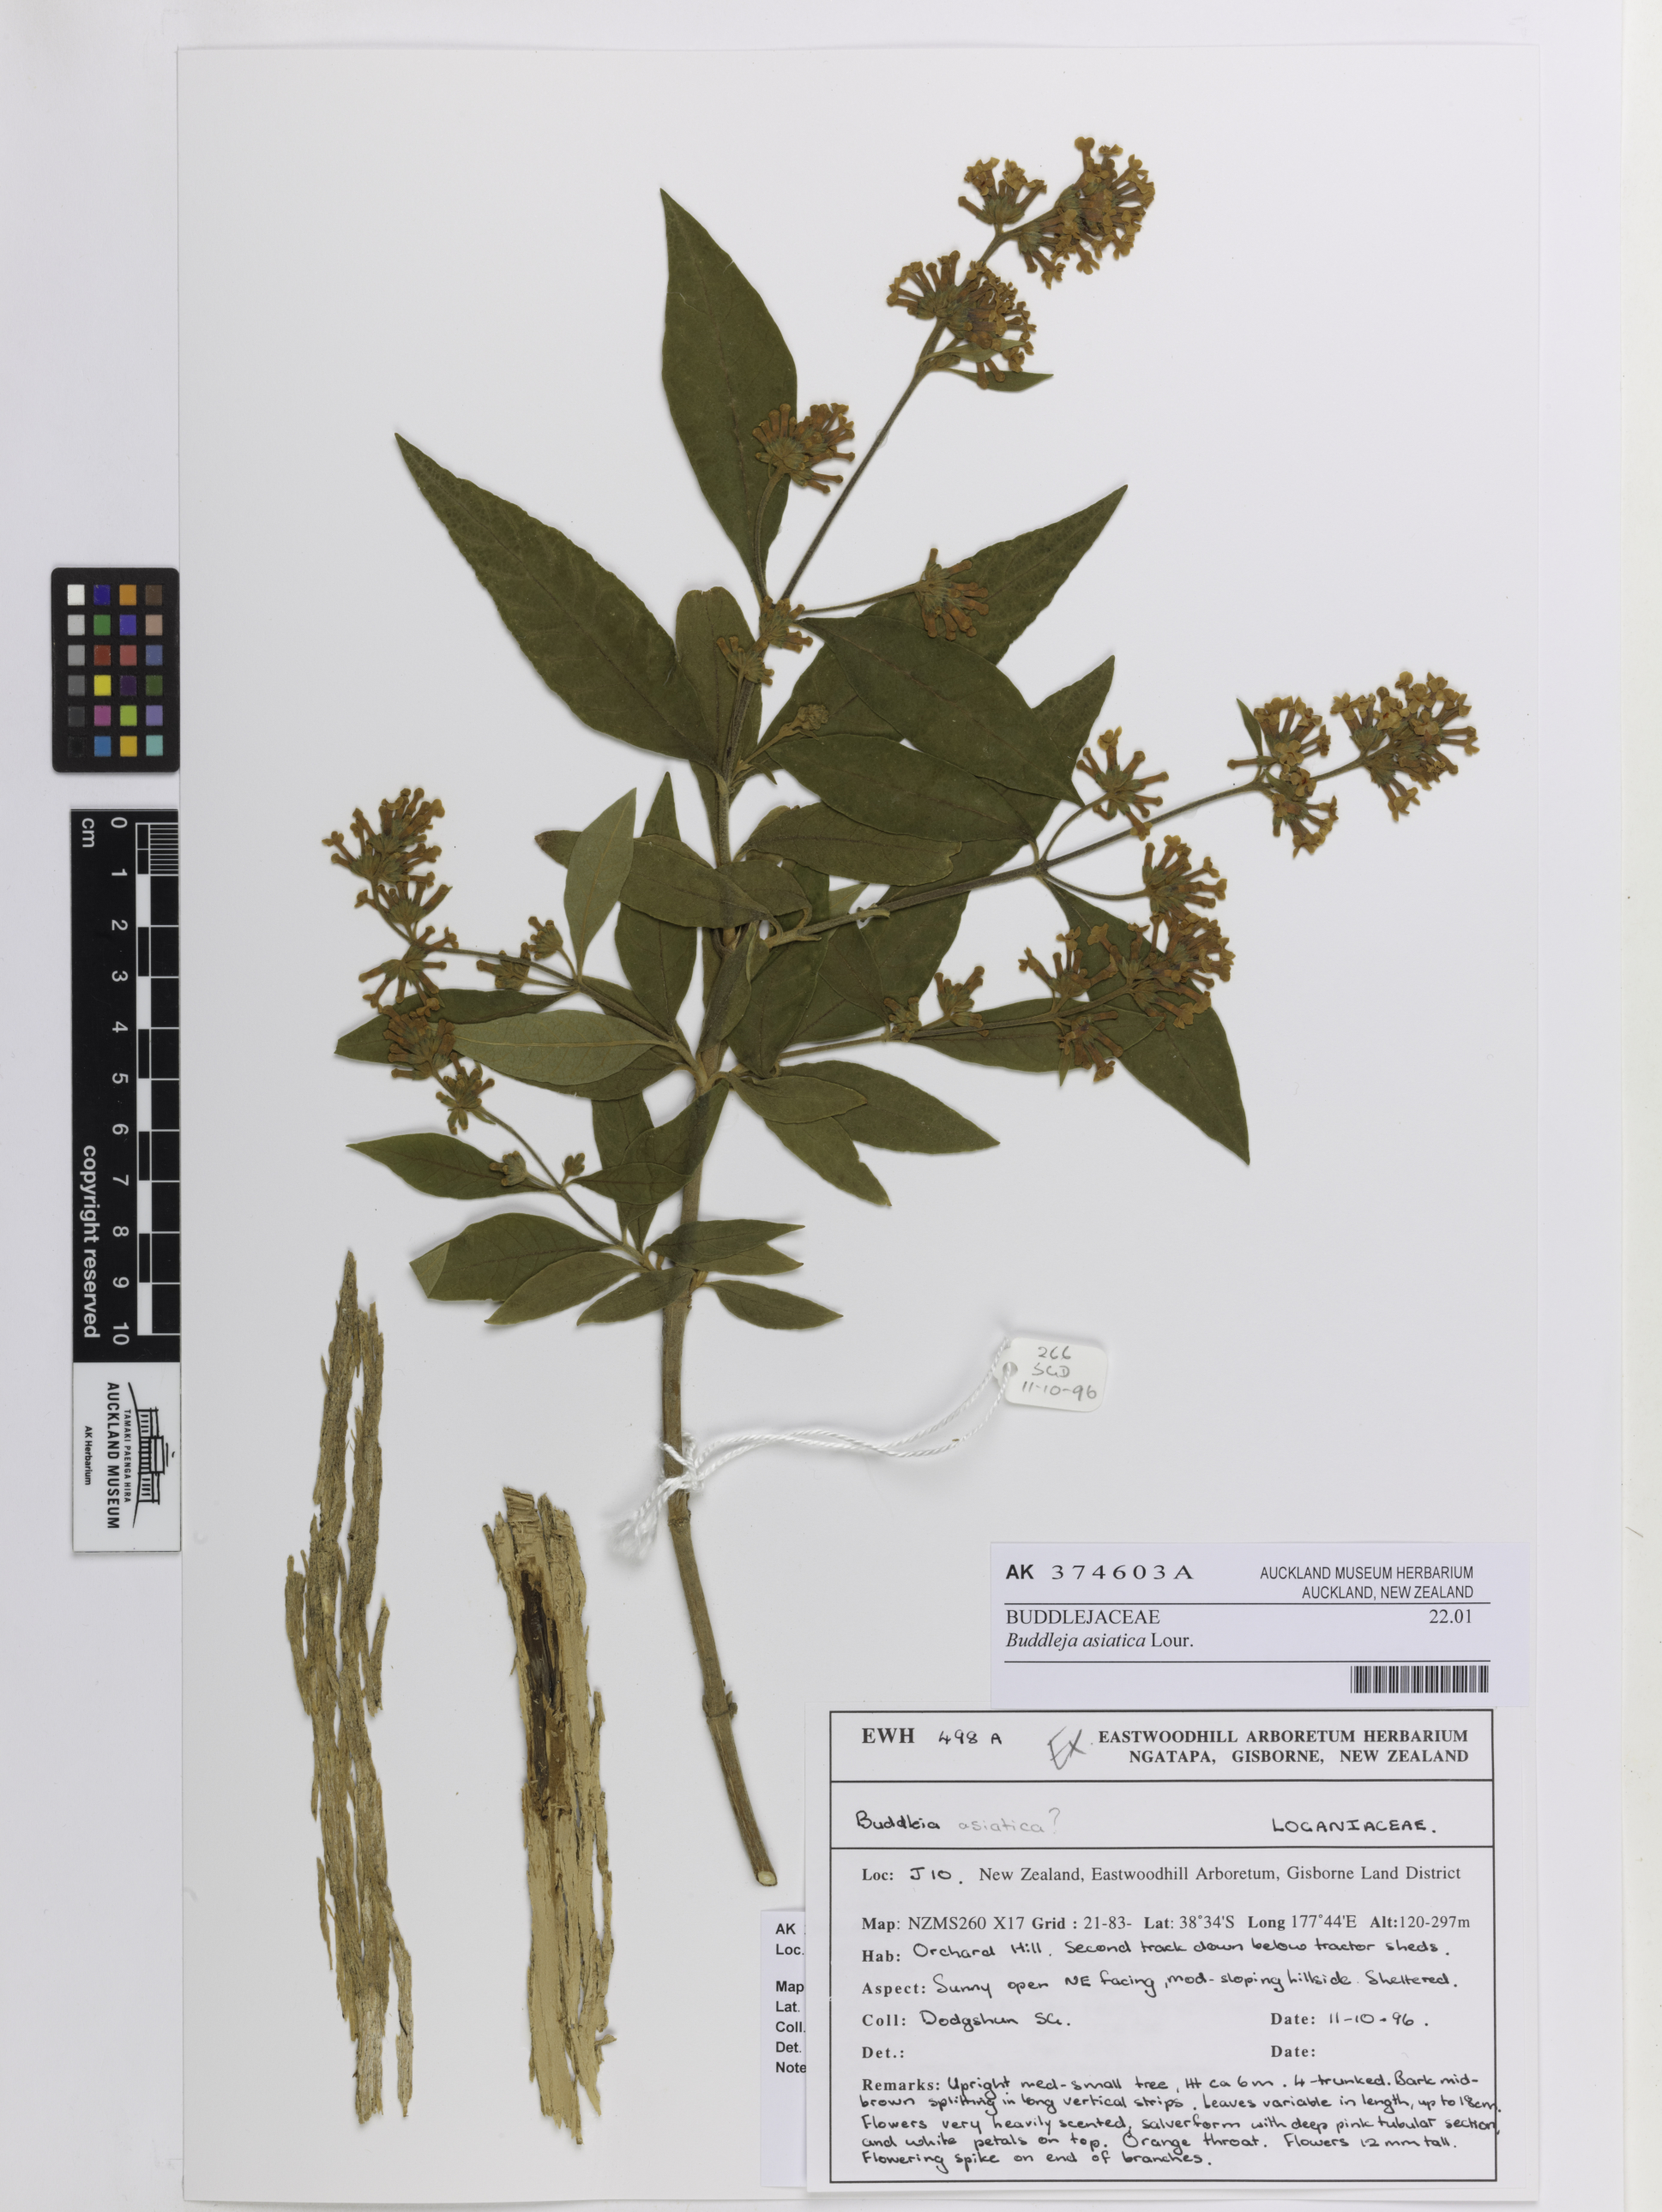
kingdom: Plantae
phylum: Tracheophyta
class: Magnoliopsida
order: Lamiales
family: Scrophulariaceae
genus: Buddleja
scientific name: Buddleja asiatica
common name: Dog tail
